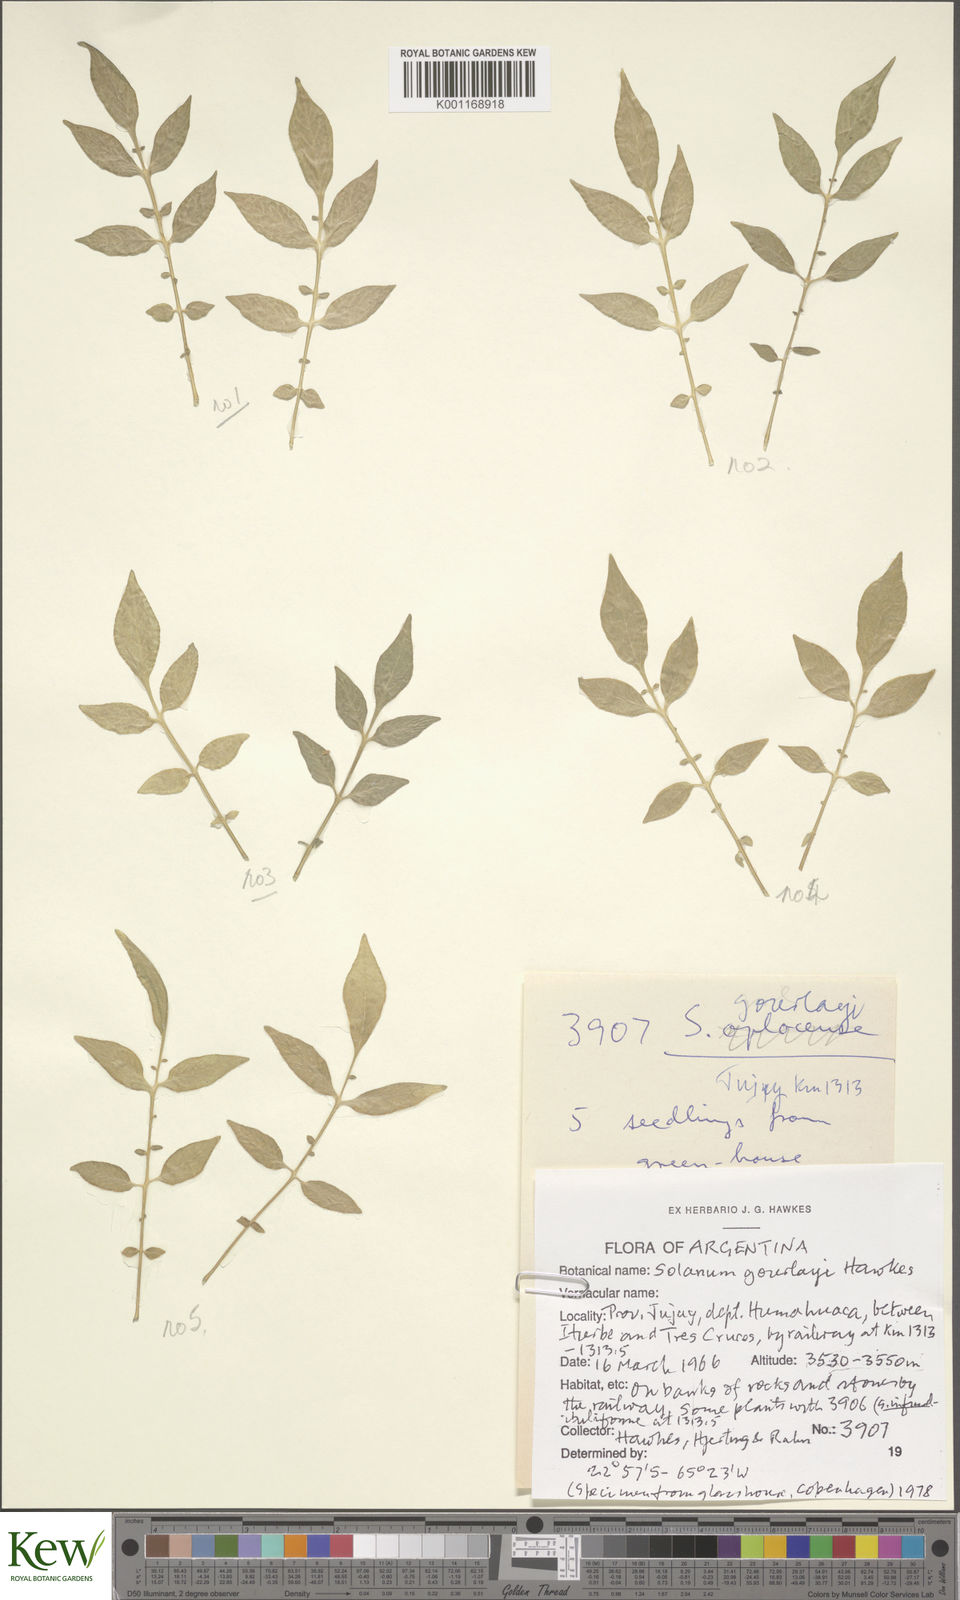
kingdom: Plantae
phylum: Tracheophyta
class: Magnoliopsida
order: Solanales
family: Solanaceae
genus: Solanum
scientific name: Solanum brevicaule
